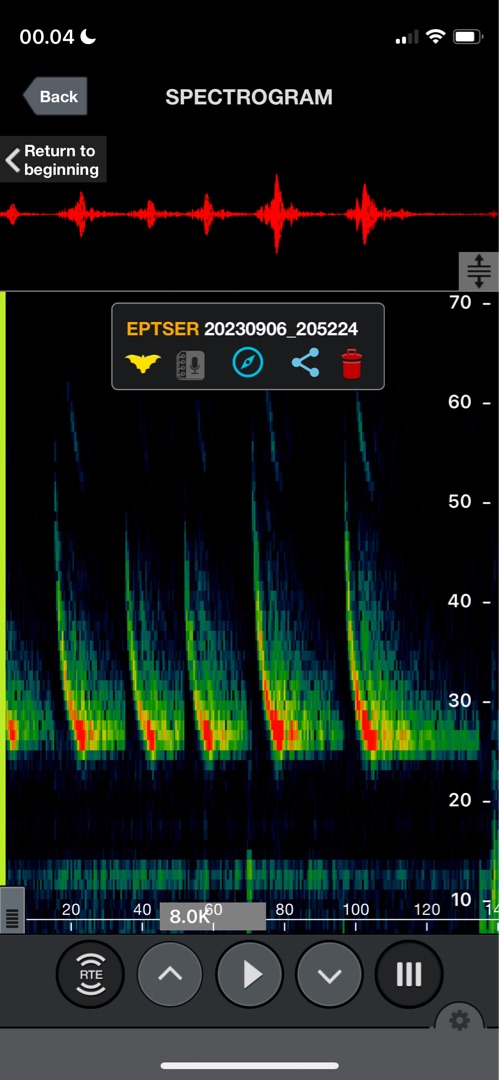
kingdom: Animalia
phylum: Chordata
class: Mammalia
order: Chiroptera
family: Vespertilionidae
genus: Eptesicus
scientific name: Eptesicus serotinus
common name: Sydflagermus
